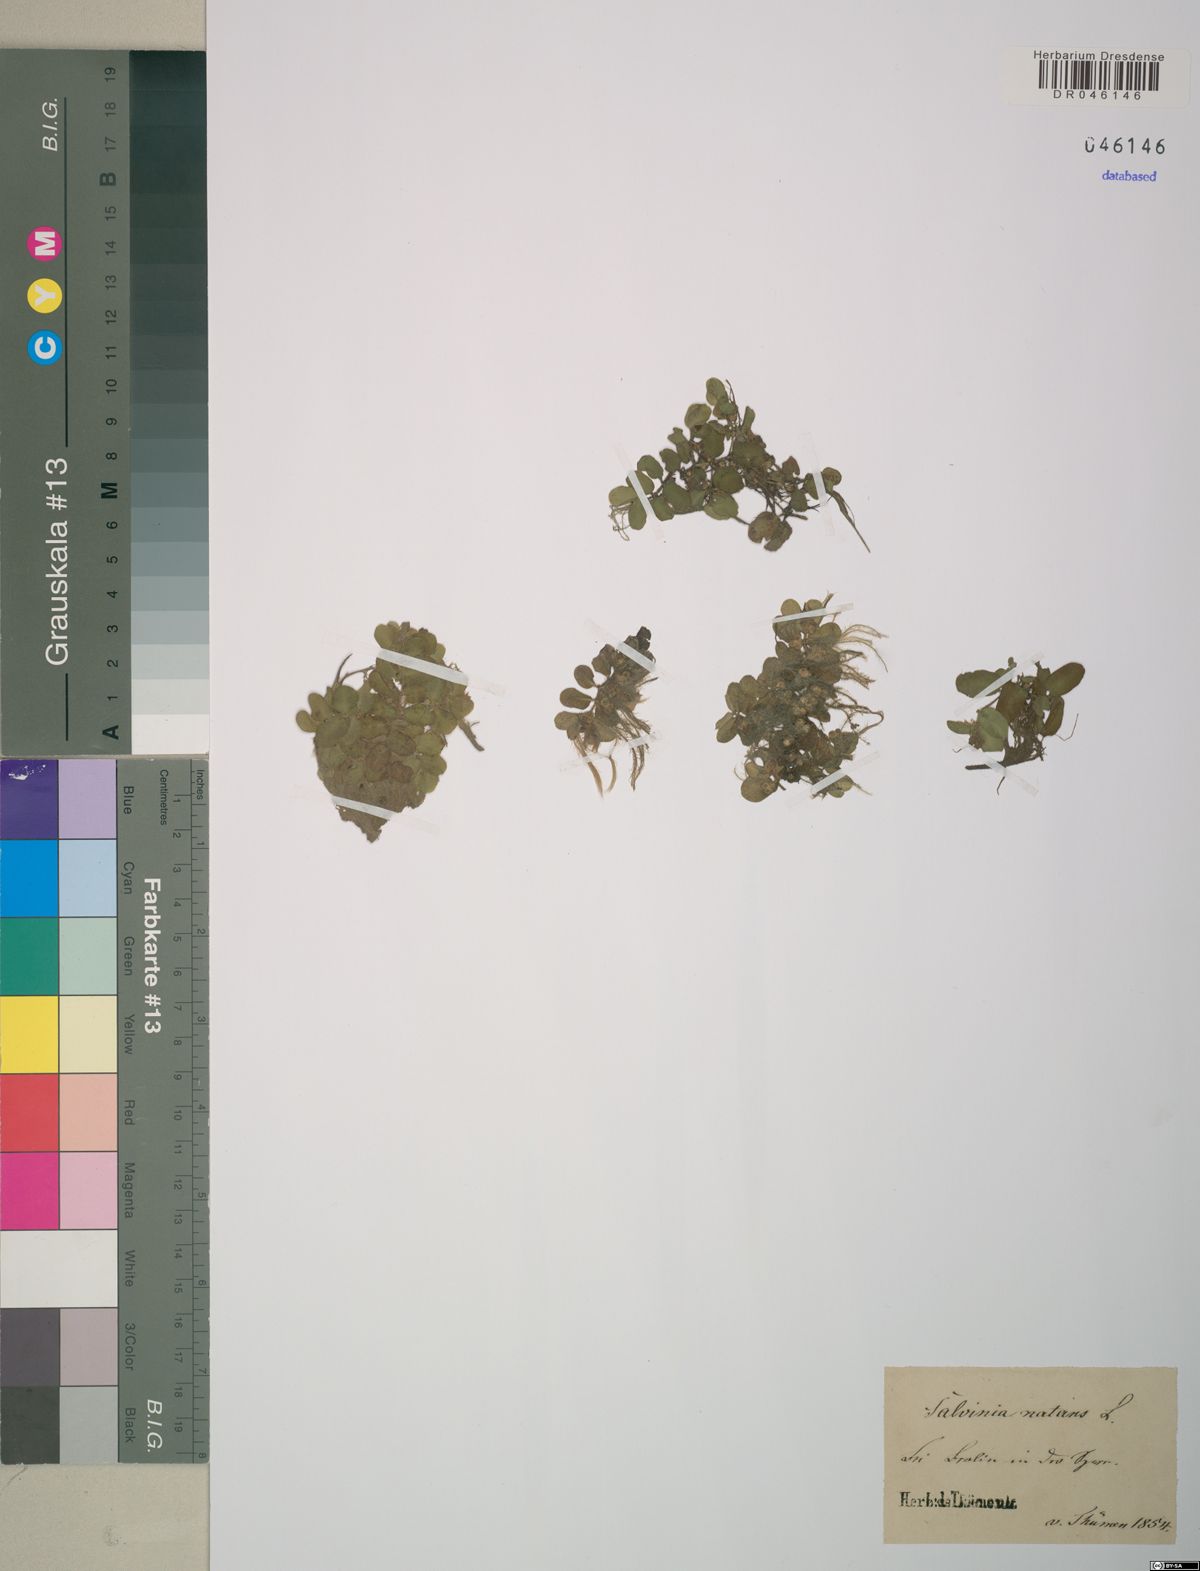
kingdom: Plantae
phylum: Tracheophyta
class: Polypodiopsida
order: Salviniales
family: Salviniaceae
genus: Salvinia
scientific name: Salvinia natans
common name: Floating fern
